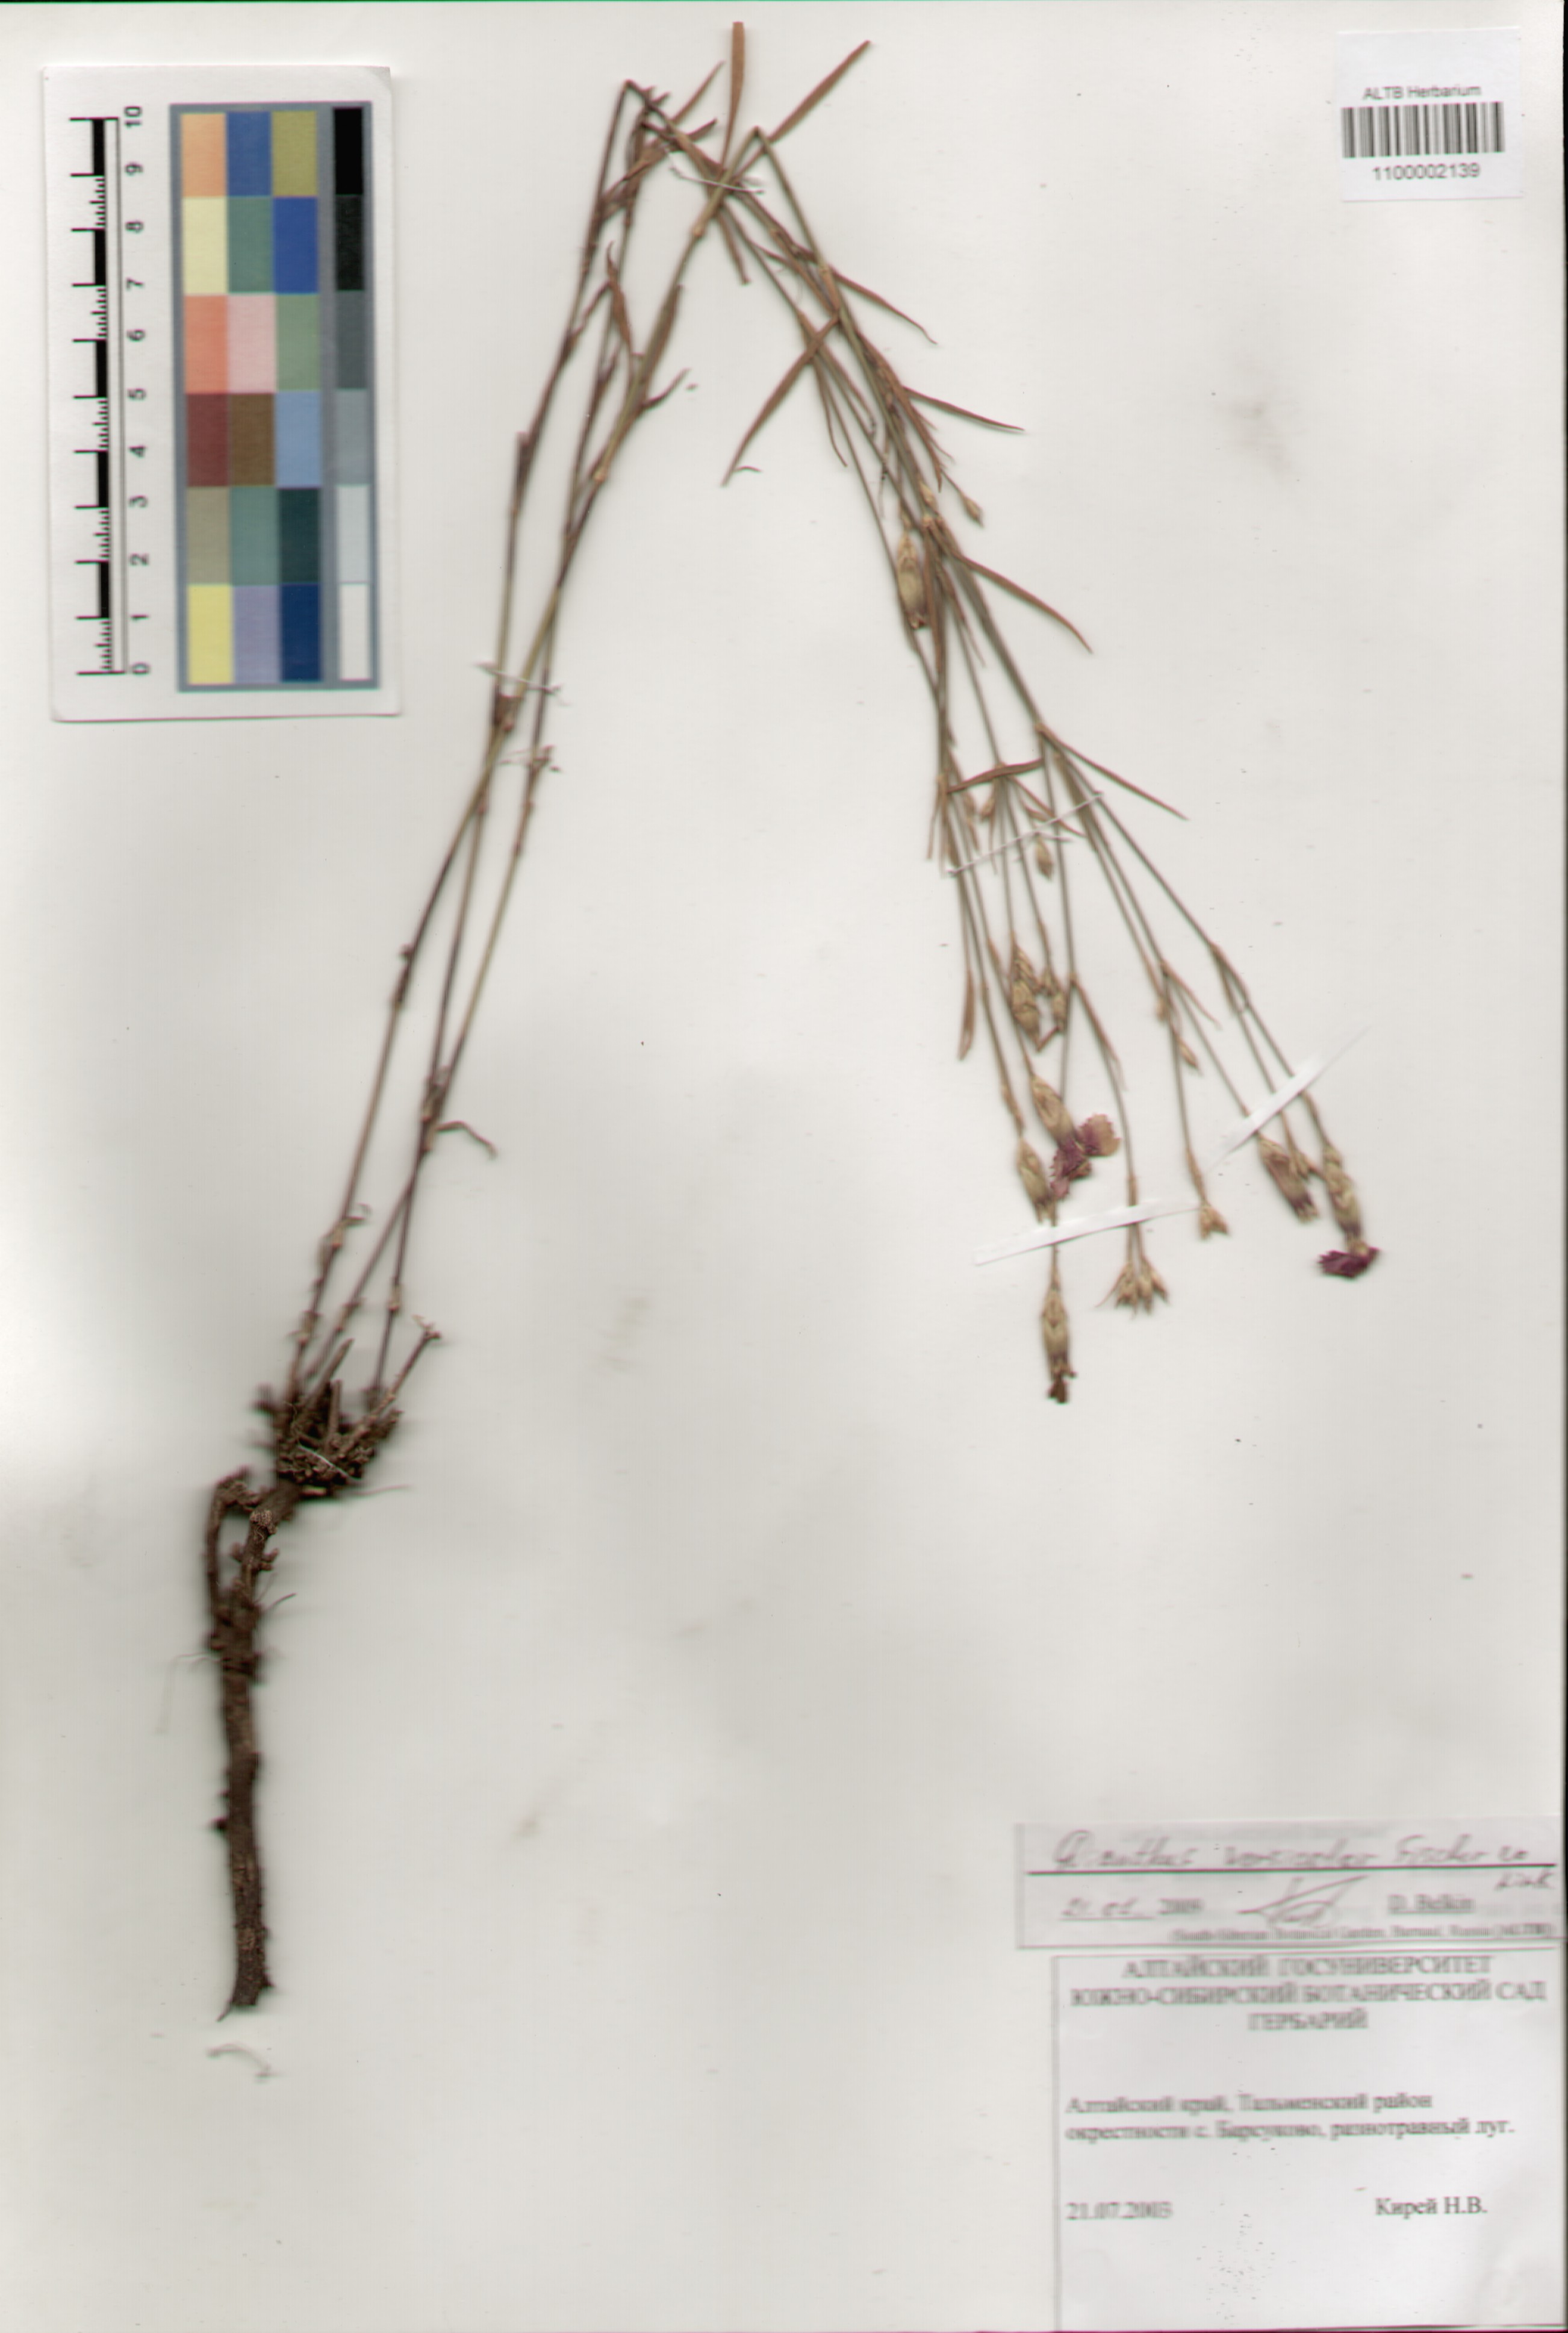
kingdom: Plantae
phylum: Tracheophyta
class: Magnoliopsida
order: Caryophyllales
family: Caryophyllaceae
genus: Dianthus
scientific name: Dianthus chinensis
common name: Rainbow pink
